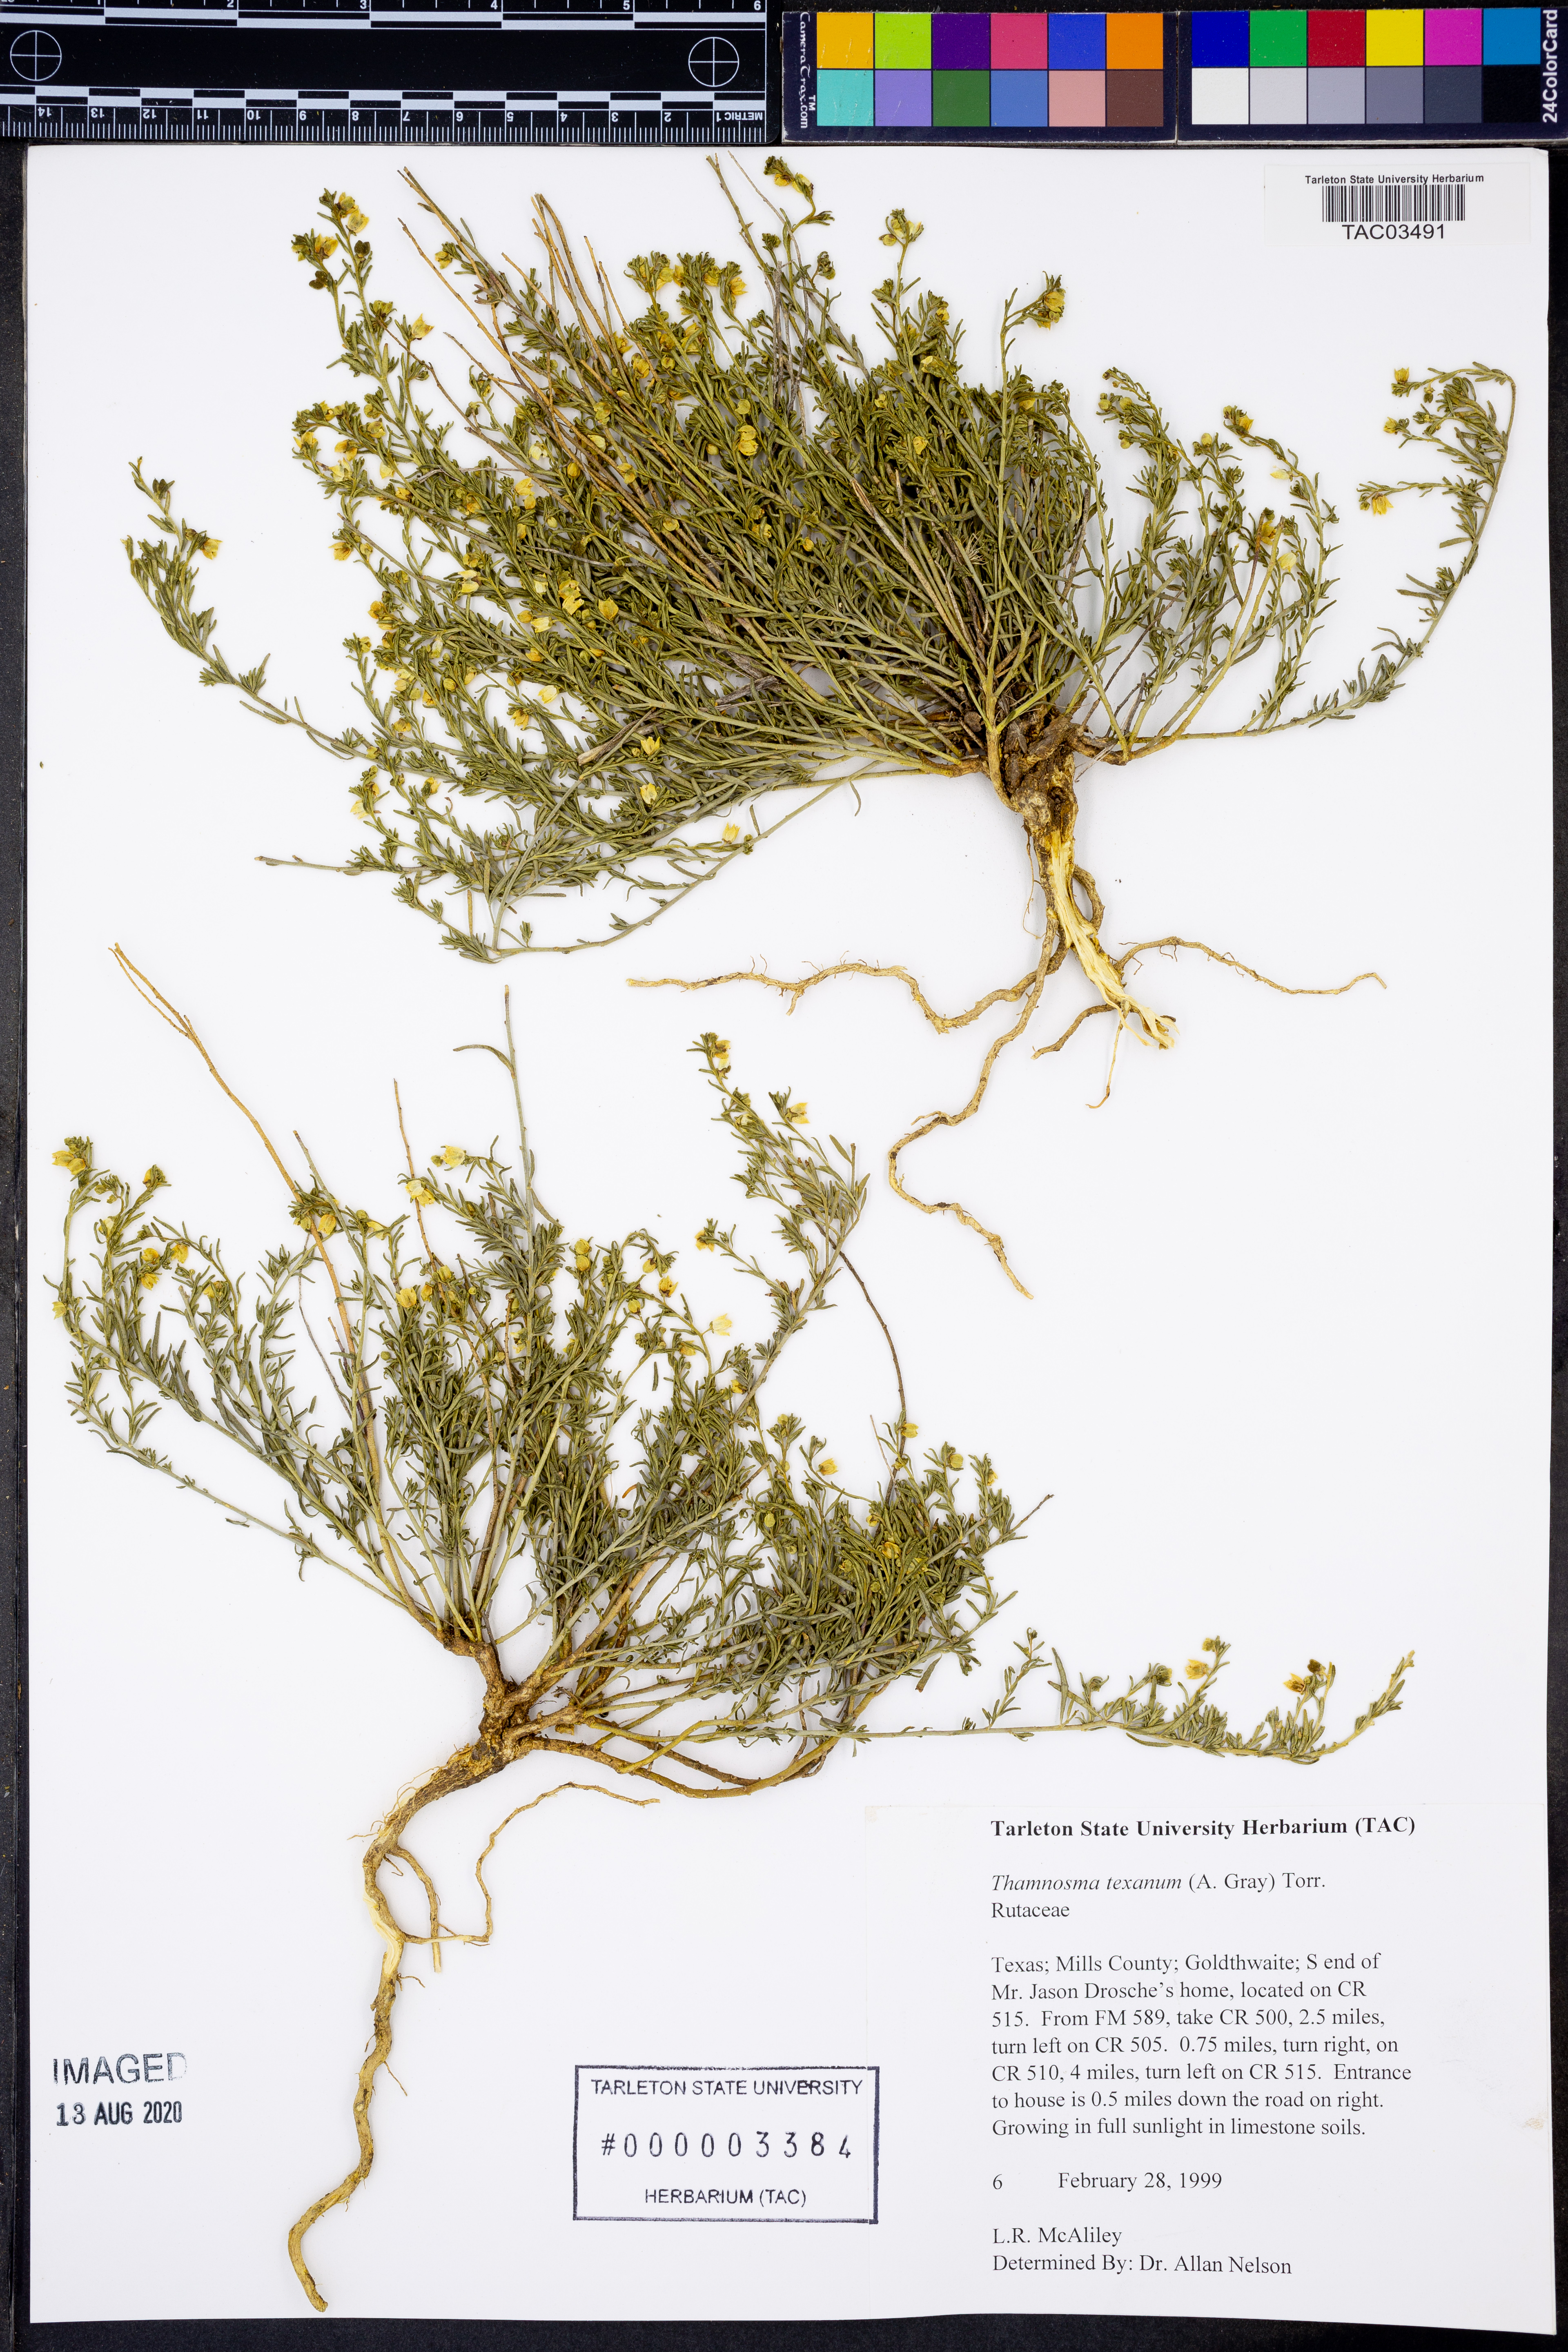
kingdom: Plantae
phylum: Tracheophyta
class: Magnoliopsida
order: Sapindales
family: Rutaceae
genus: Thamnosma
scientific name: Thamnosma texana
